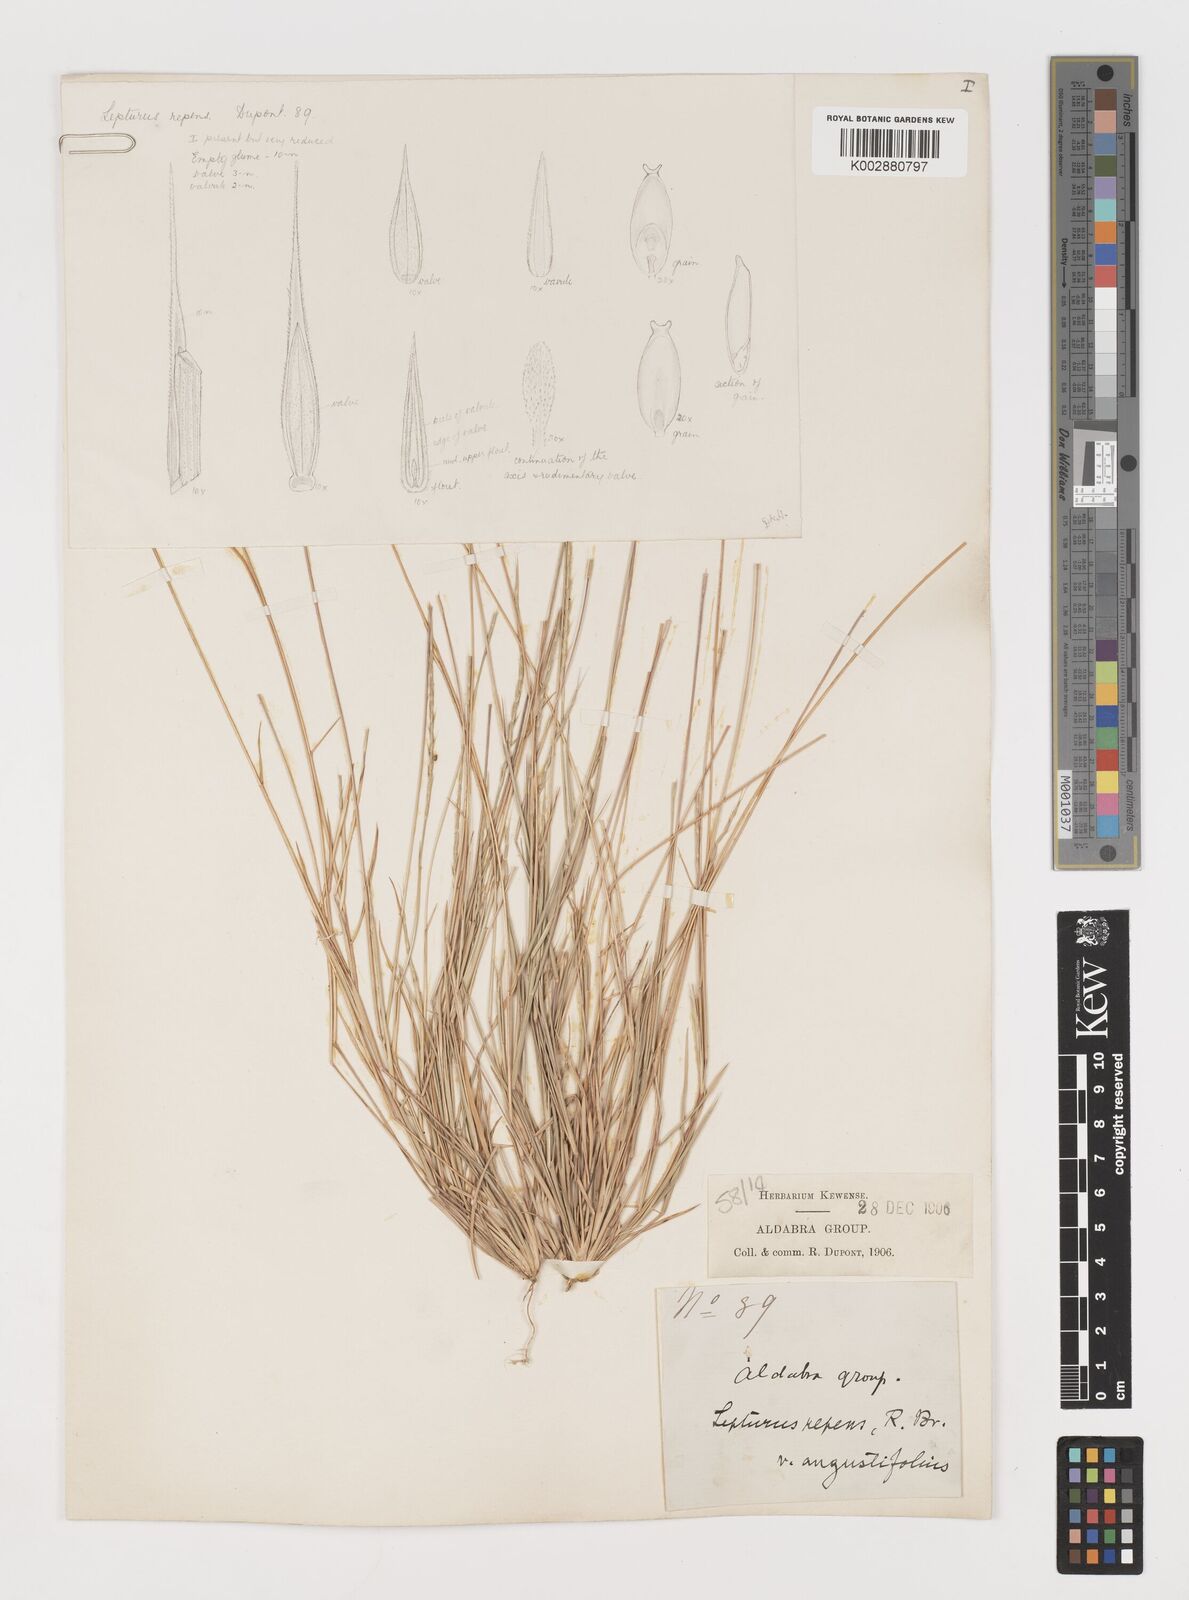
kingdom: Plantae
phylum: Tracheophyta
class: Liliopsida
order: Poales
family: Poaceae
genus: Lepturus
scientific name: Lepturus repens
